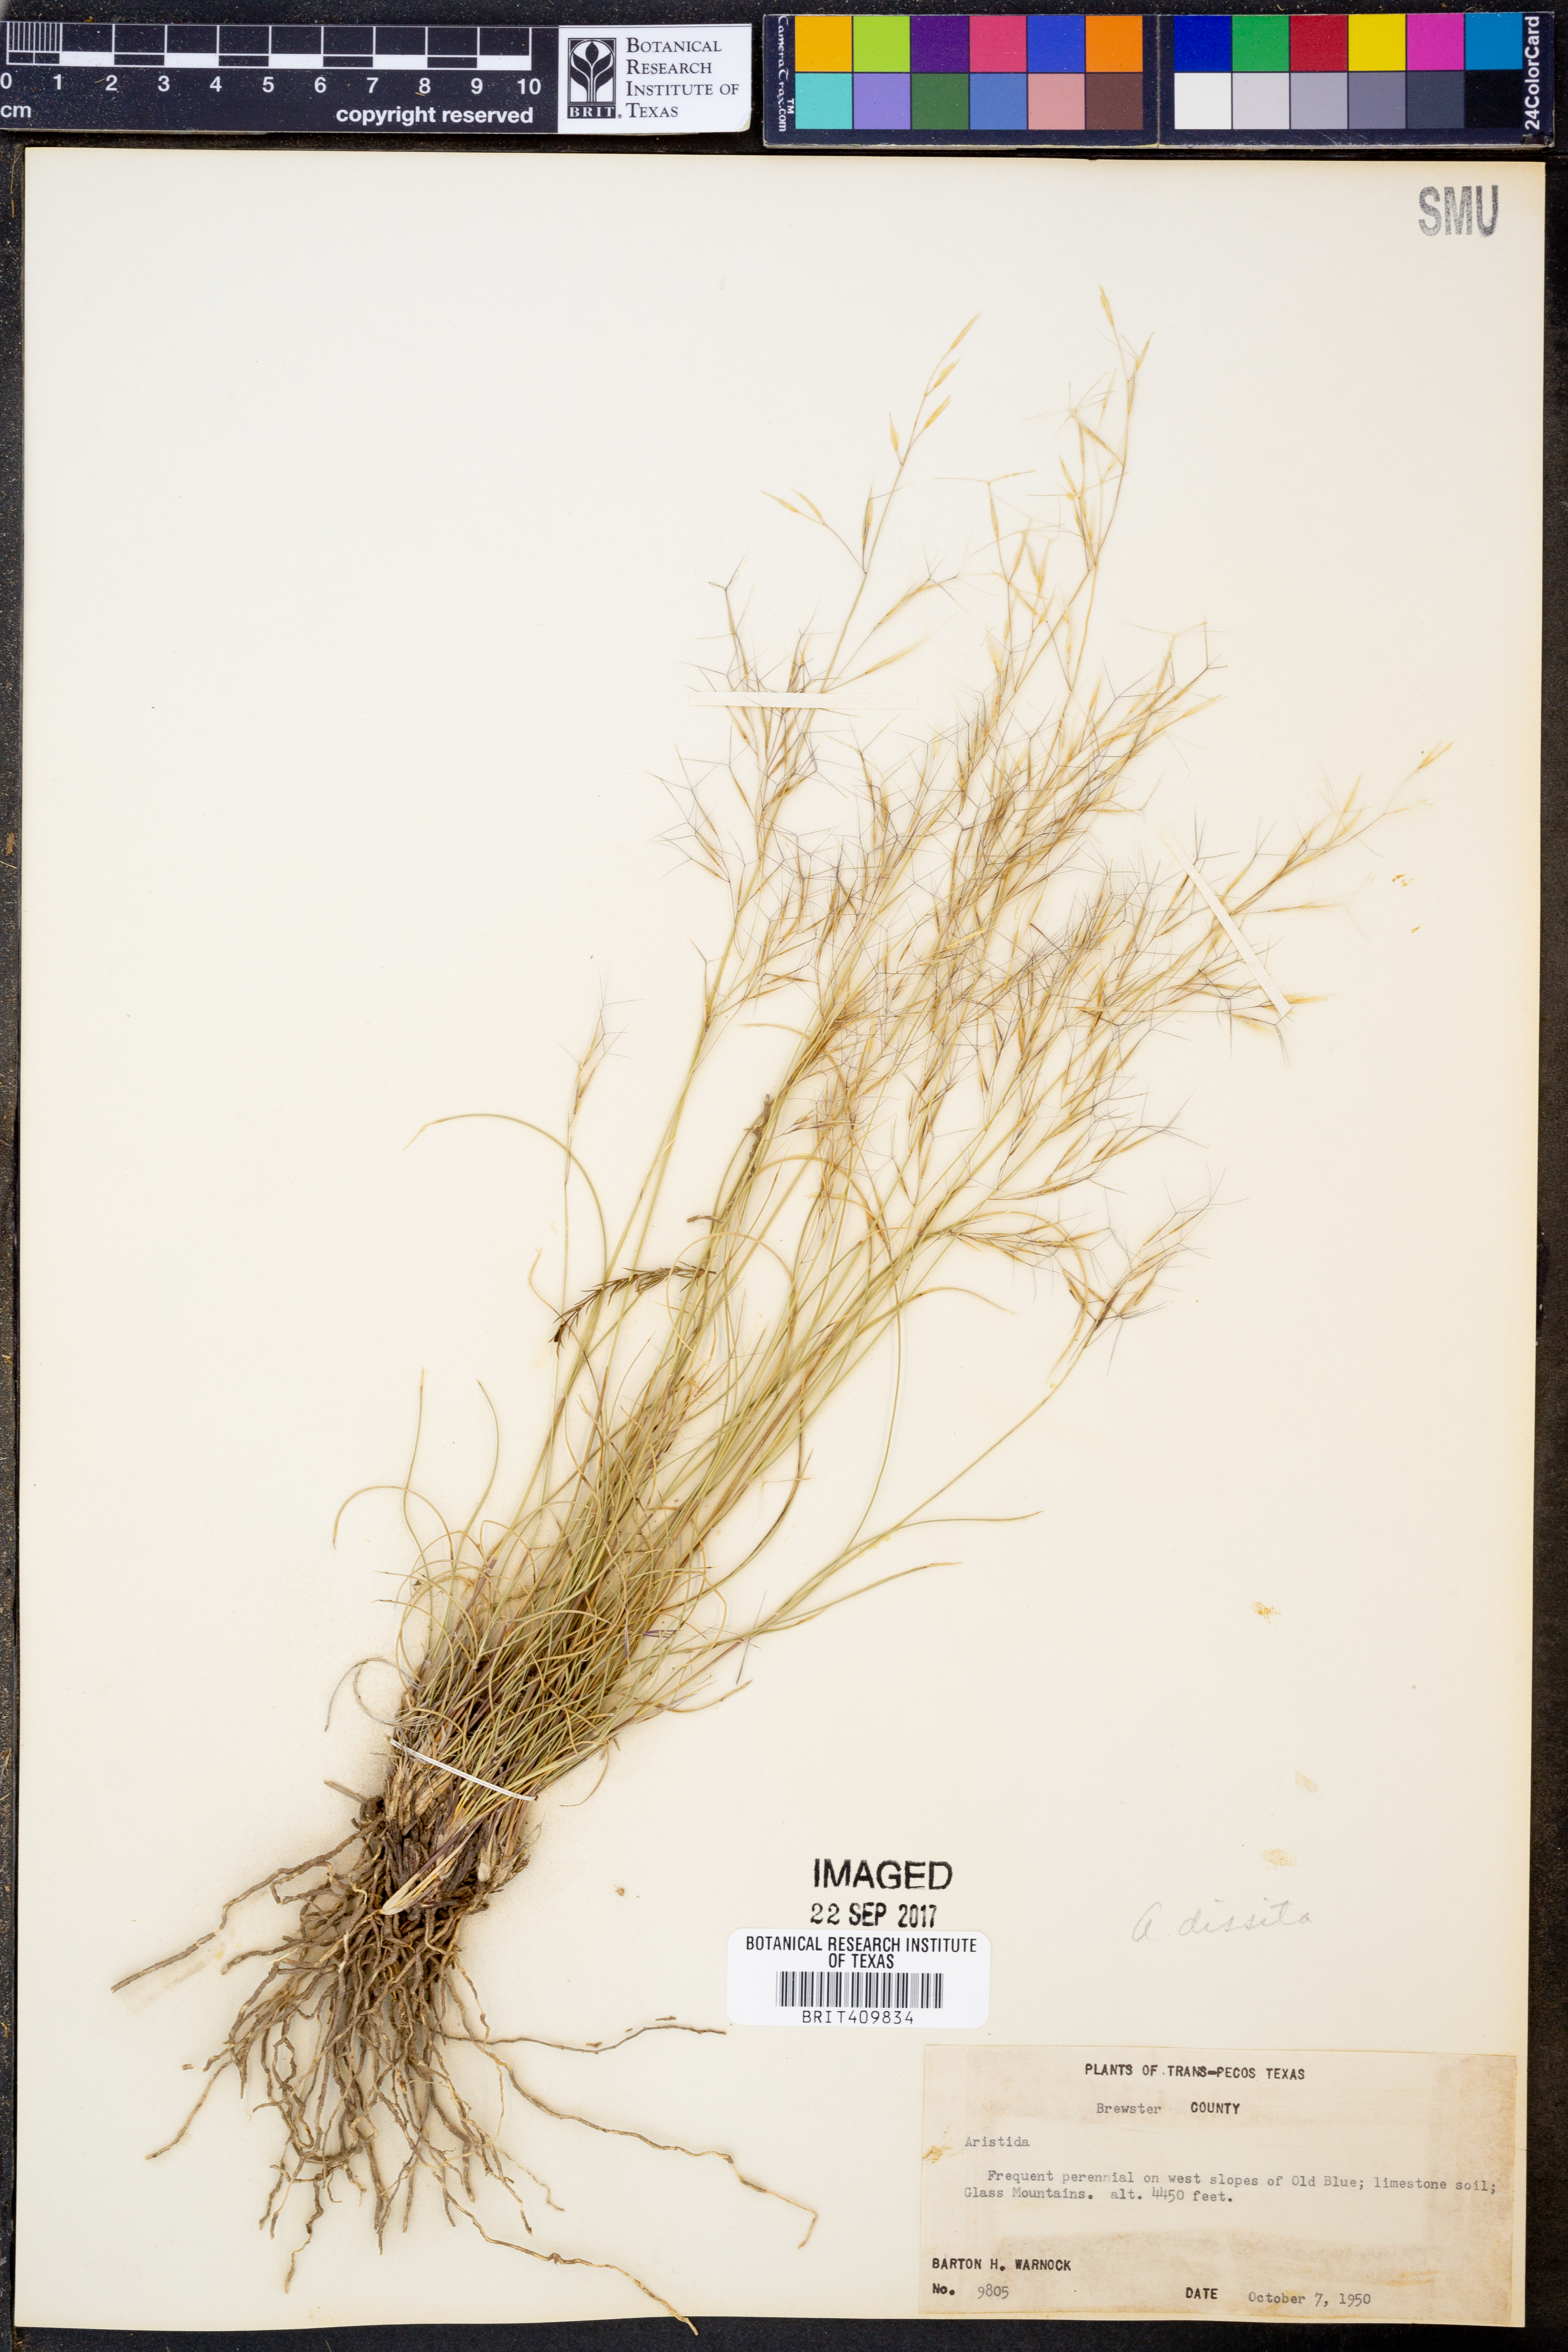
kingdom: Plantae
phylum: Tracheophyta
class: Liliopsida
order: Poales
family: Poaceae
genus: Aristida
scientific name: Aristida
